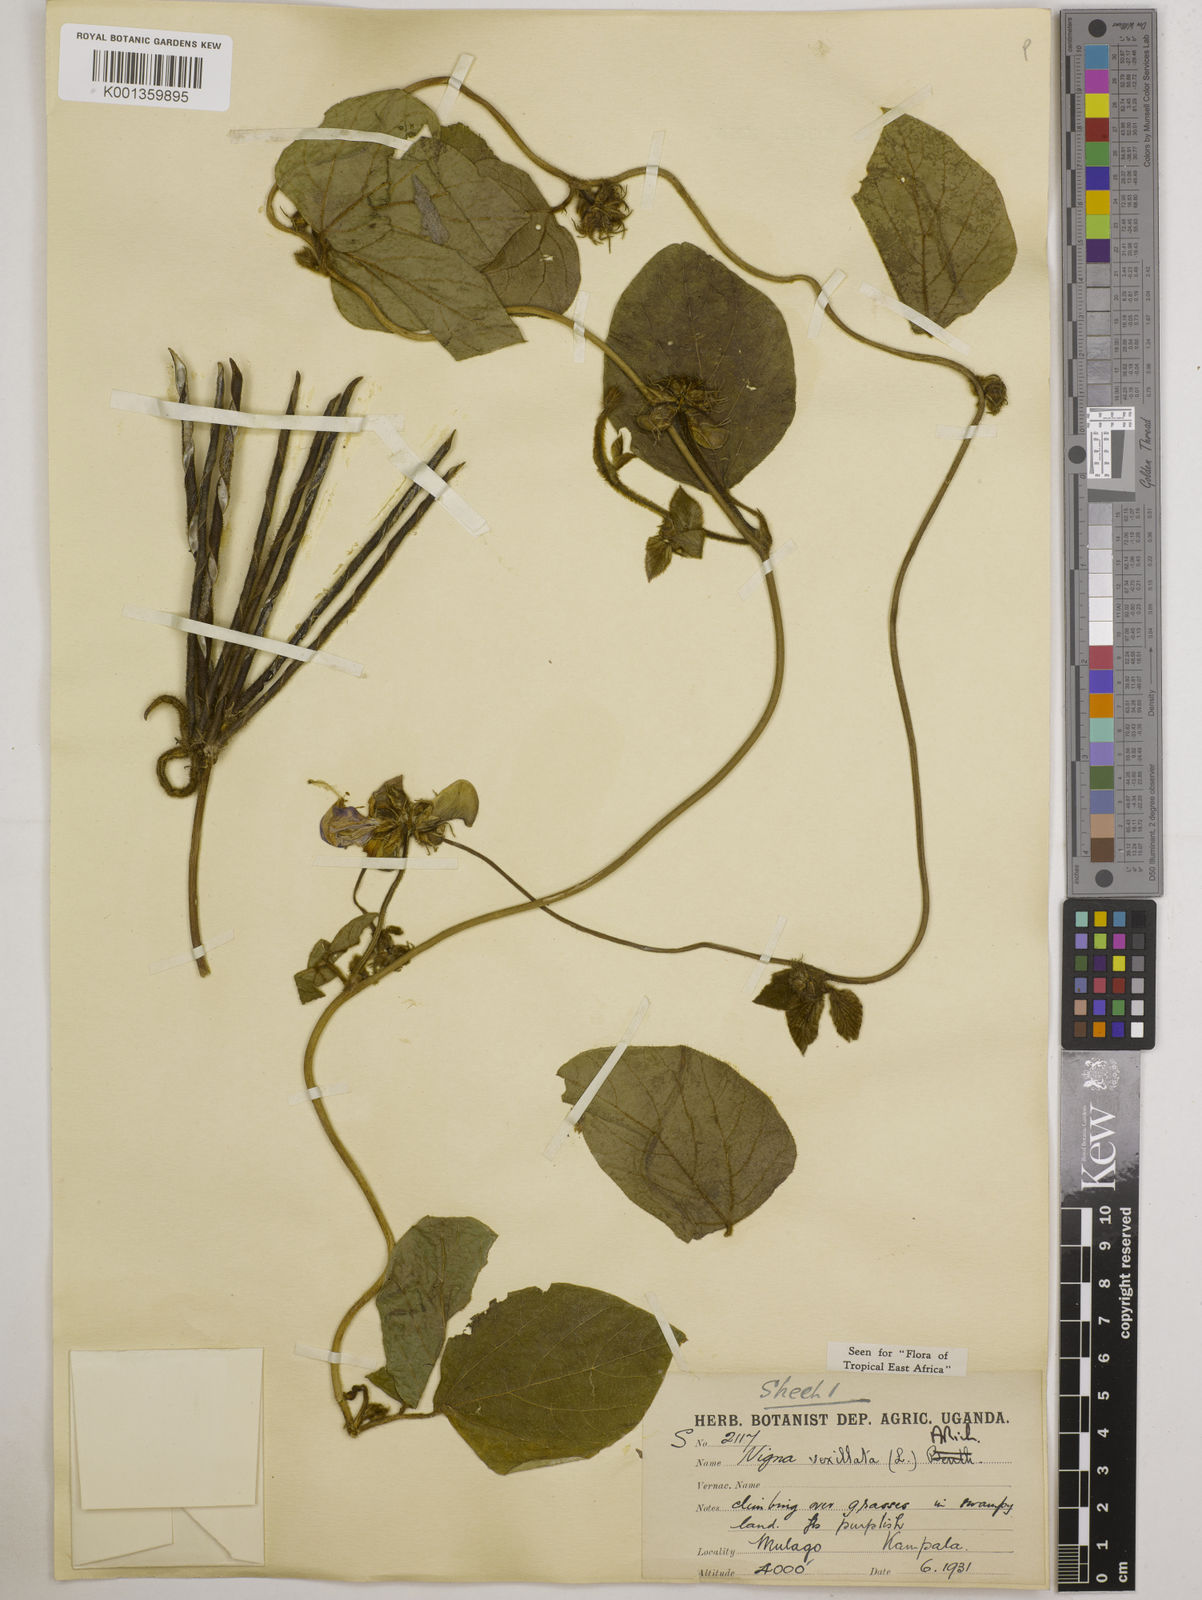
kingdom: Plantae
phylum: Tracheophyta
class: Magnoliopsida
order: Fabales
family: Fabaceae
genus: Vigna
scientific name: Vigna vexillata
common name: Zombi pea
